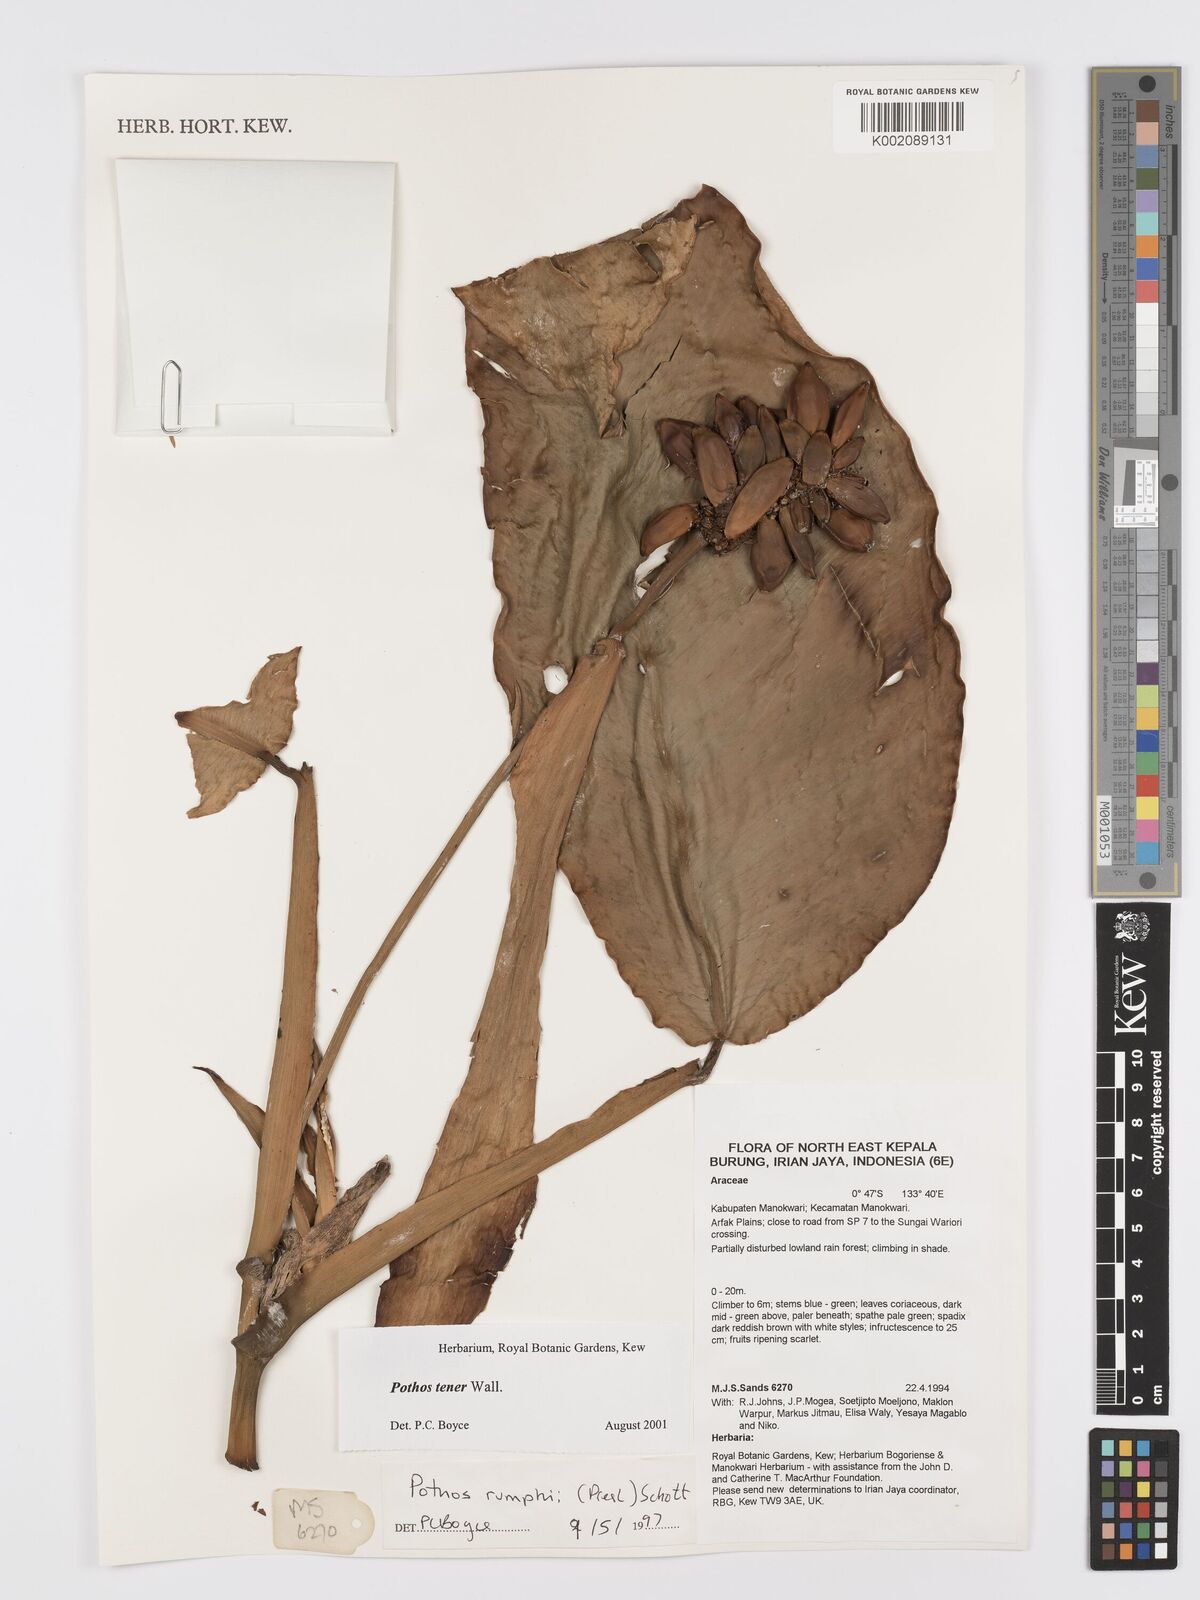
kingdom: Plantae
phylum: Tracheophyta
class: Liliopsida
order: Alismatales
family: Araceae
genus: Pothos
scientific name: Pothos tener
